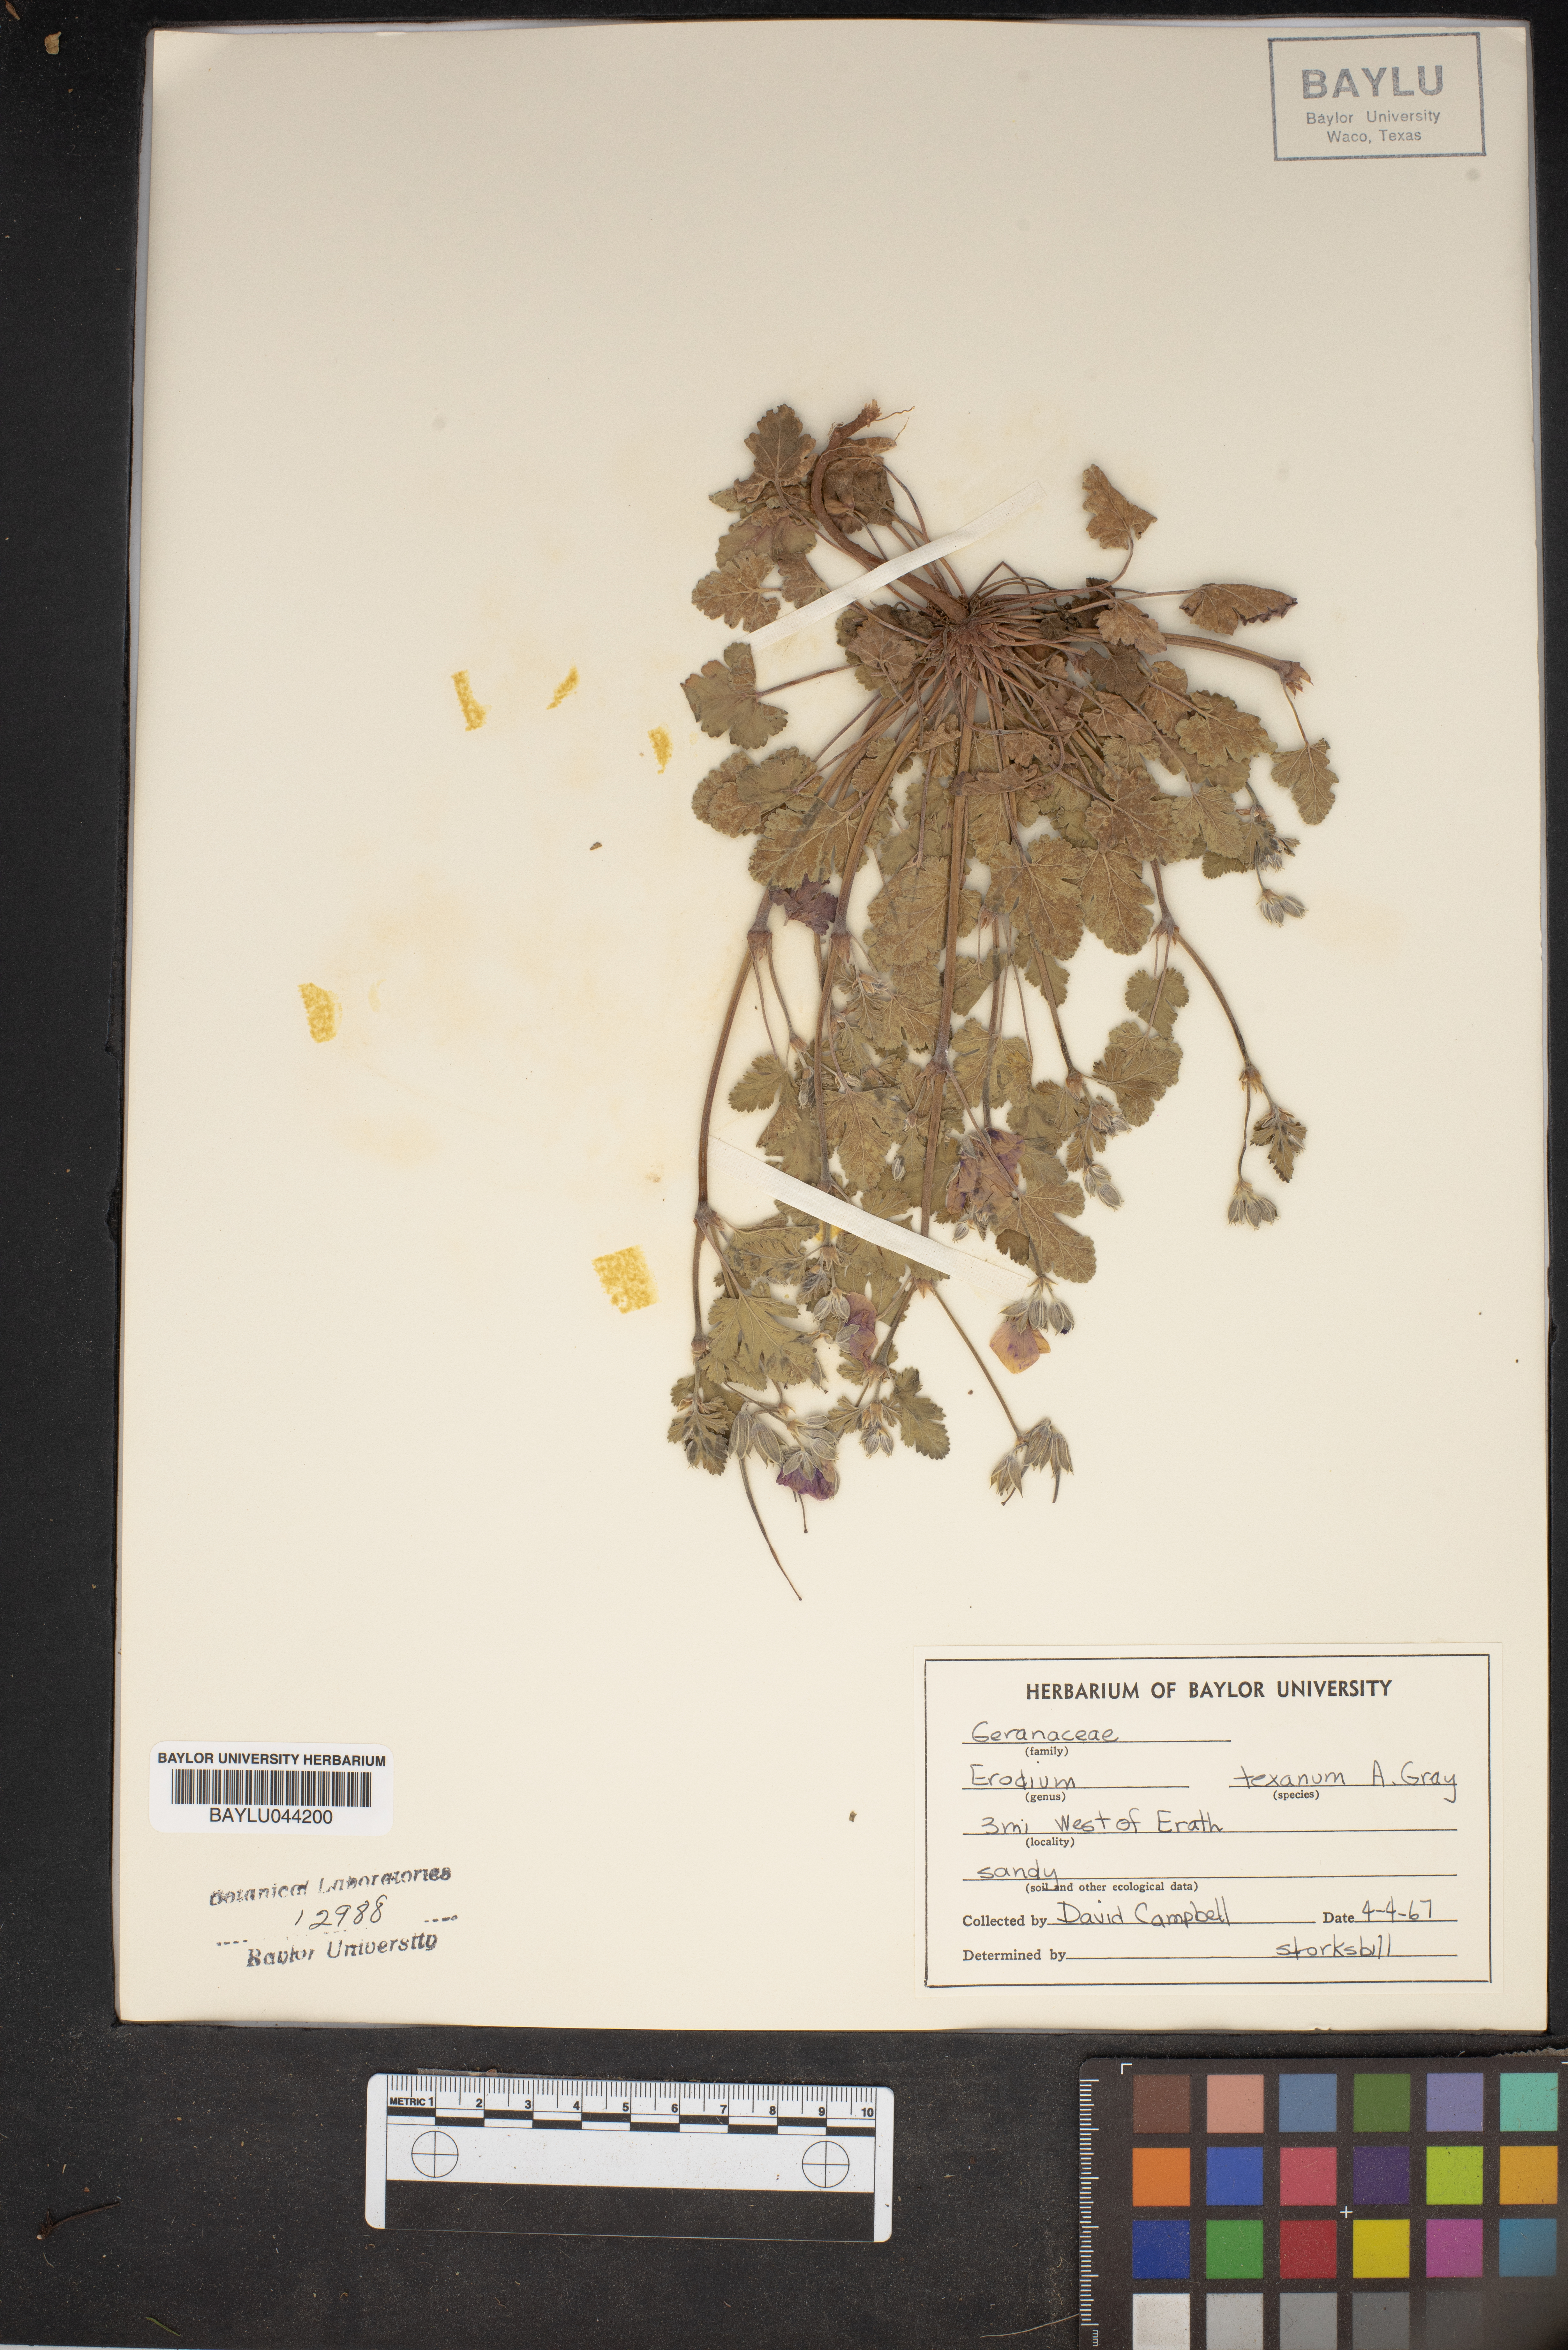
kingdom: Plantae
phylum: Tracheophyta
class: Magnoliopsida
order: Geraniales
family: Geraniaceae
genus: Erodium
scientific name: Erodium texanum
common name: Texas stork's-bill
